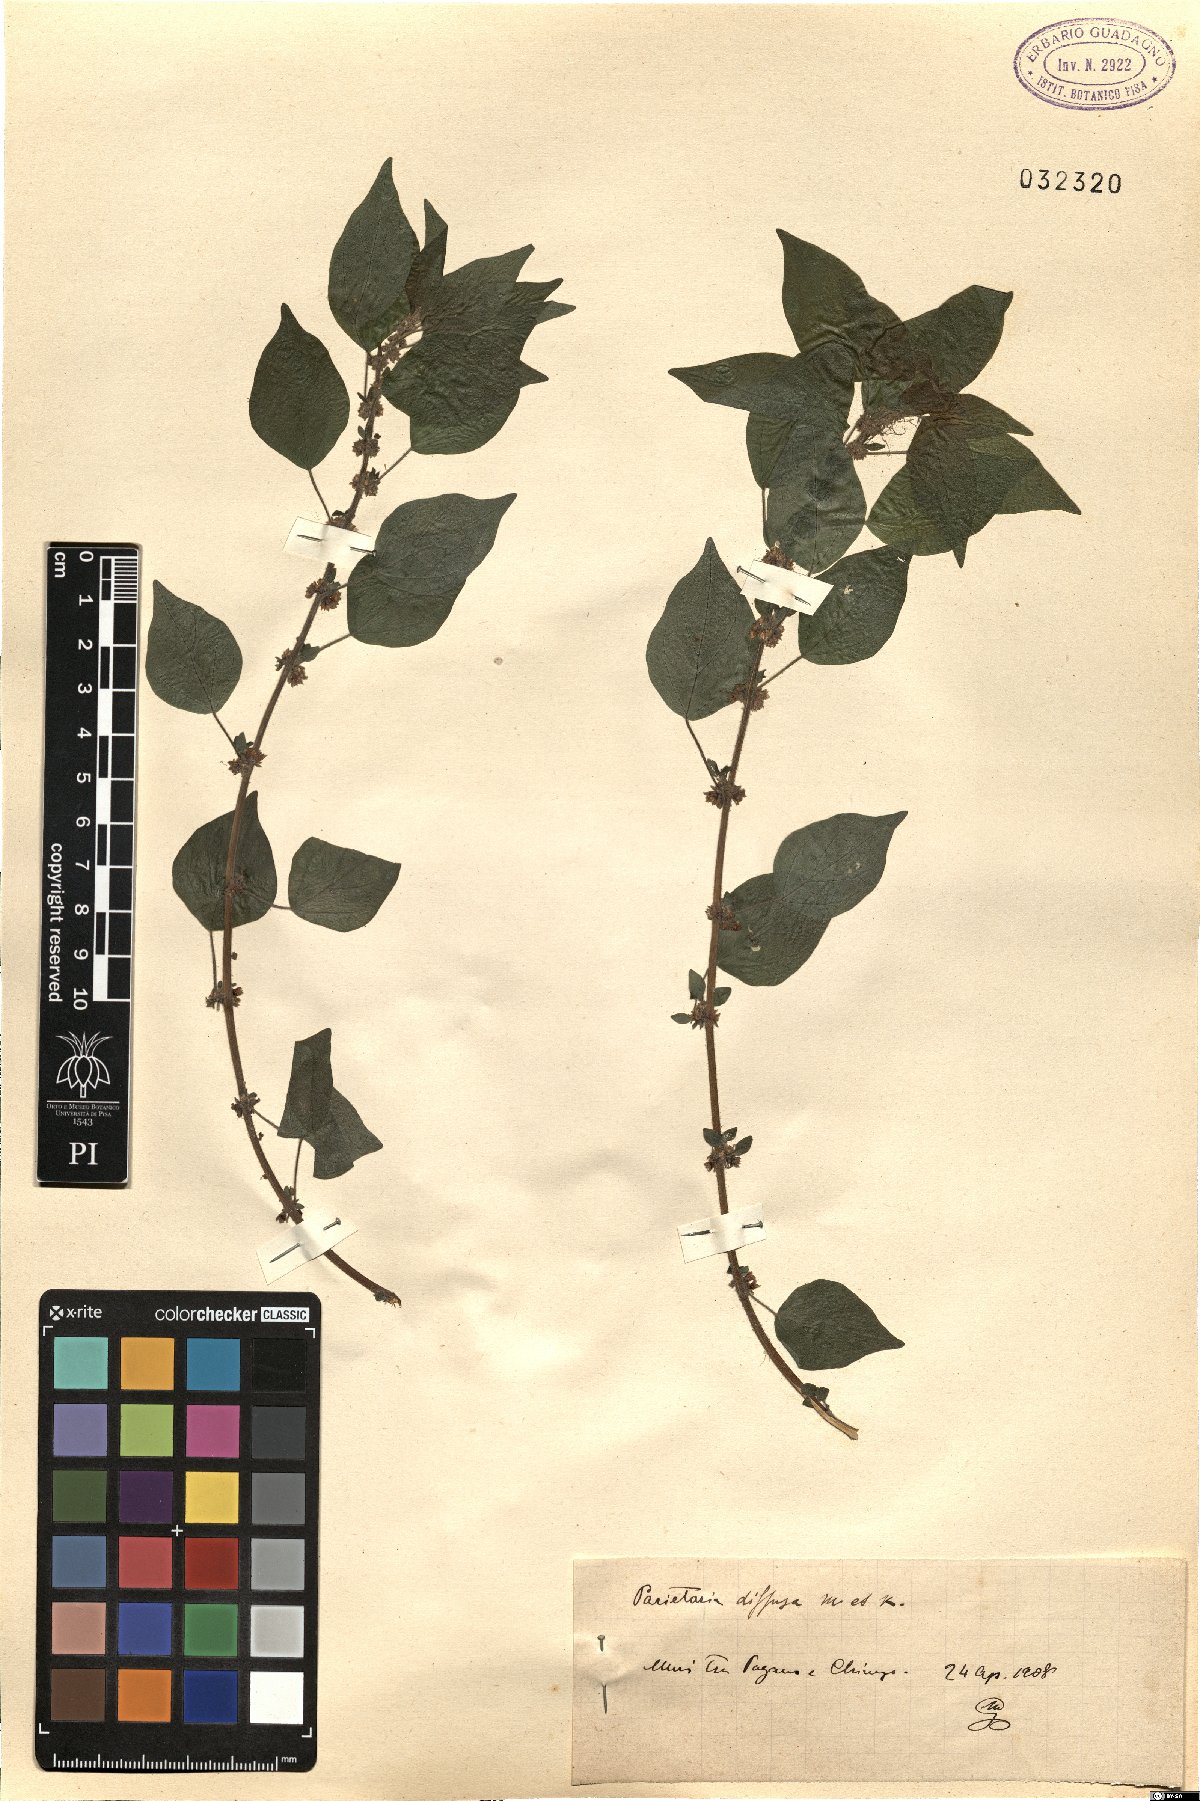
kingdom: Plantae
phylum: Tracheophyta
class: Magnoliopsida
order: Rosales
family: Urticaceae
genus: Parietaria
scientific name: Parietaria judaica
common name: Pellitory-of-the-wall
